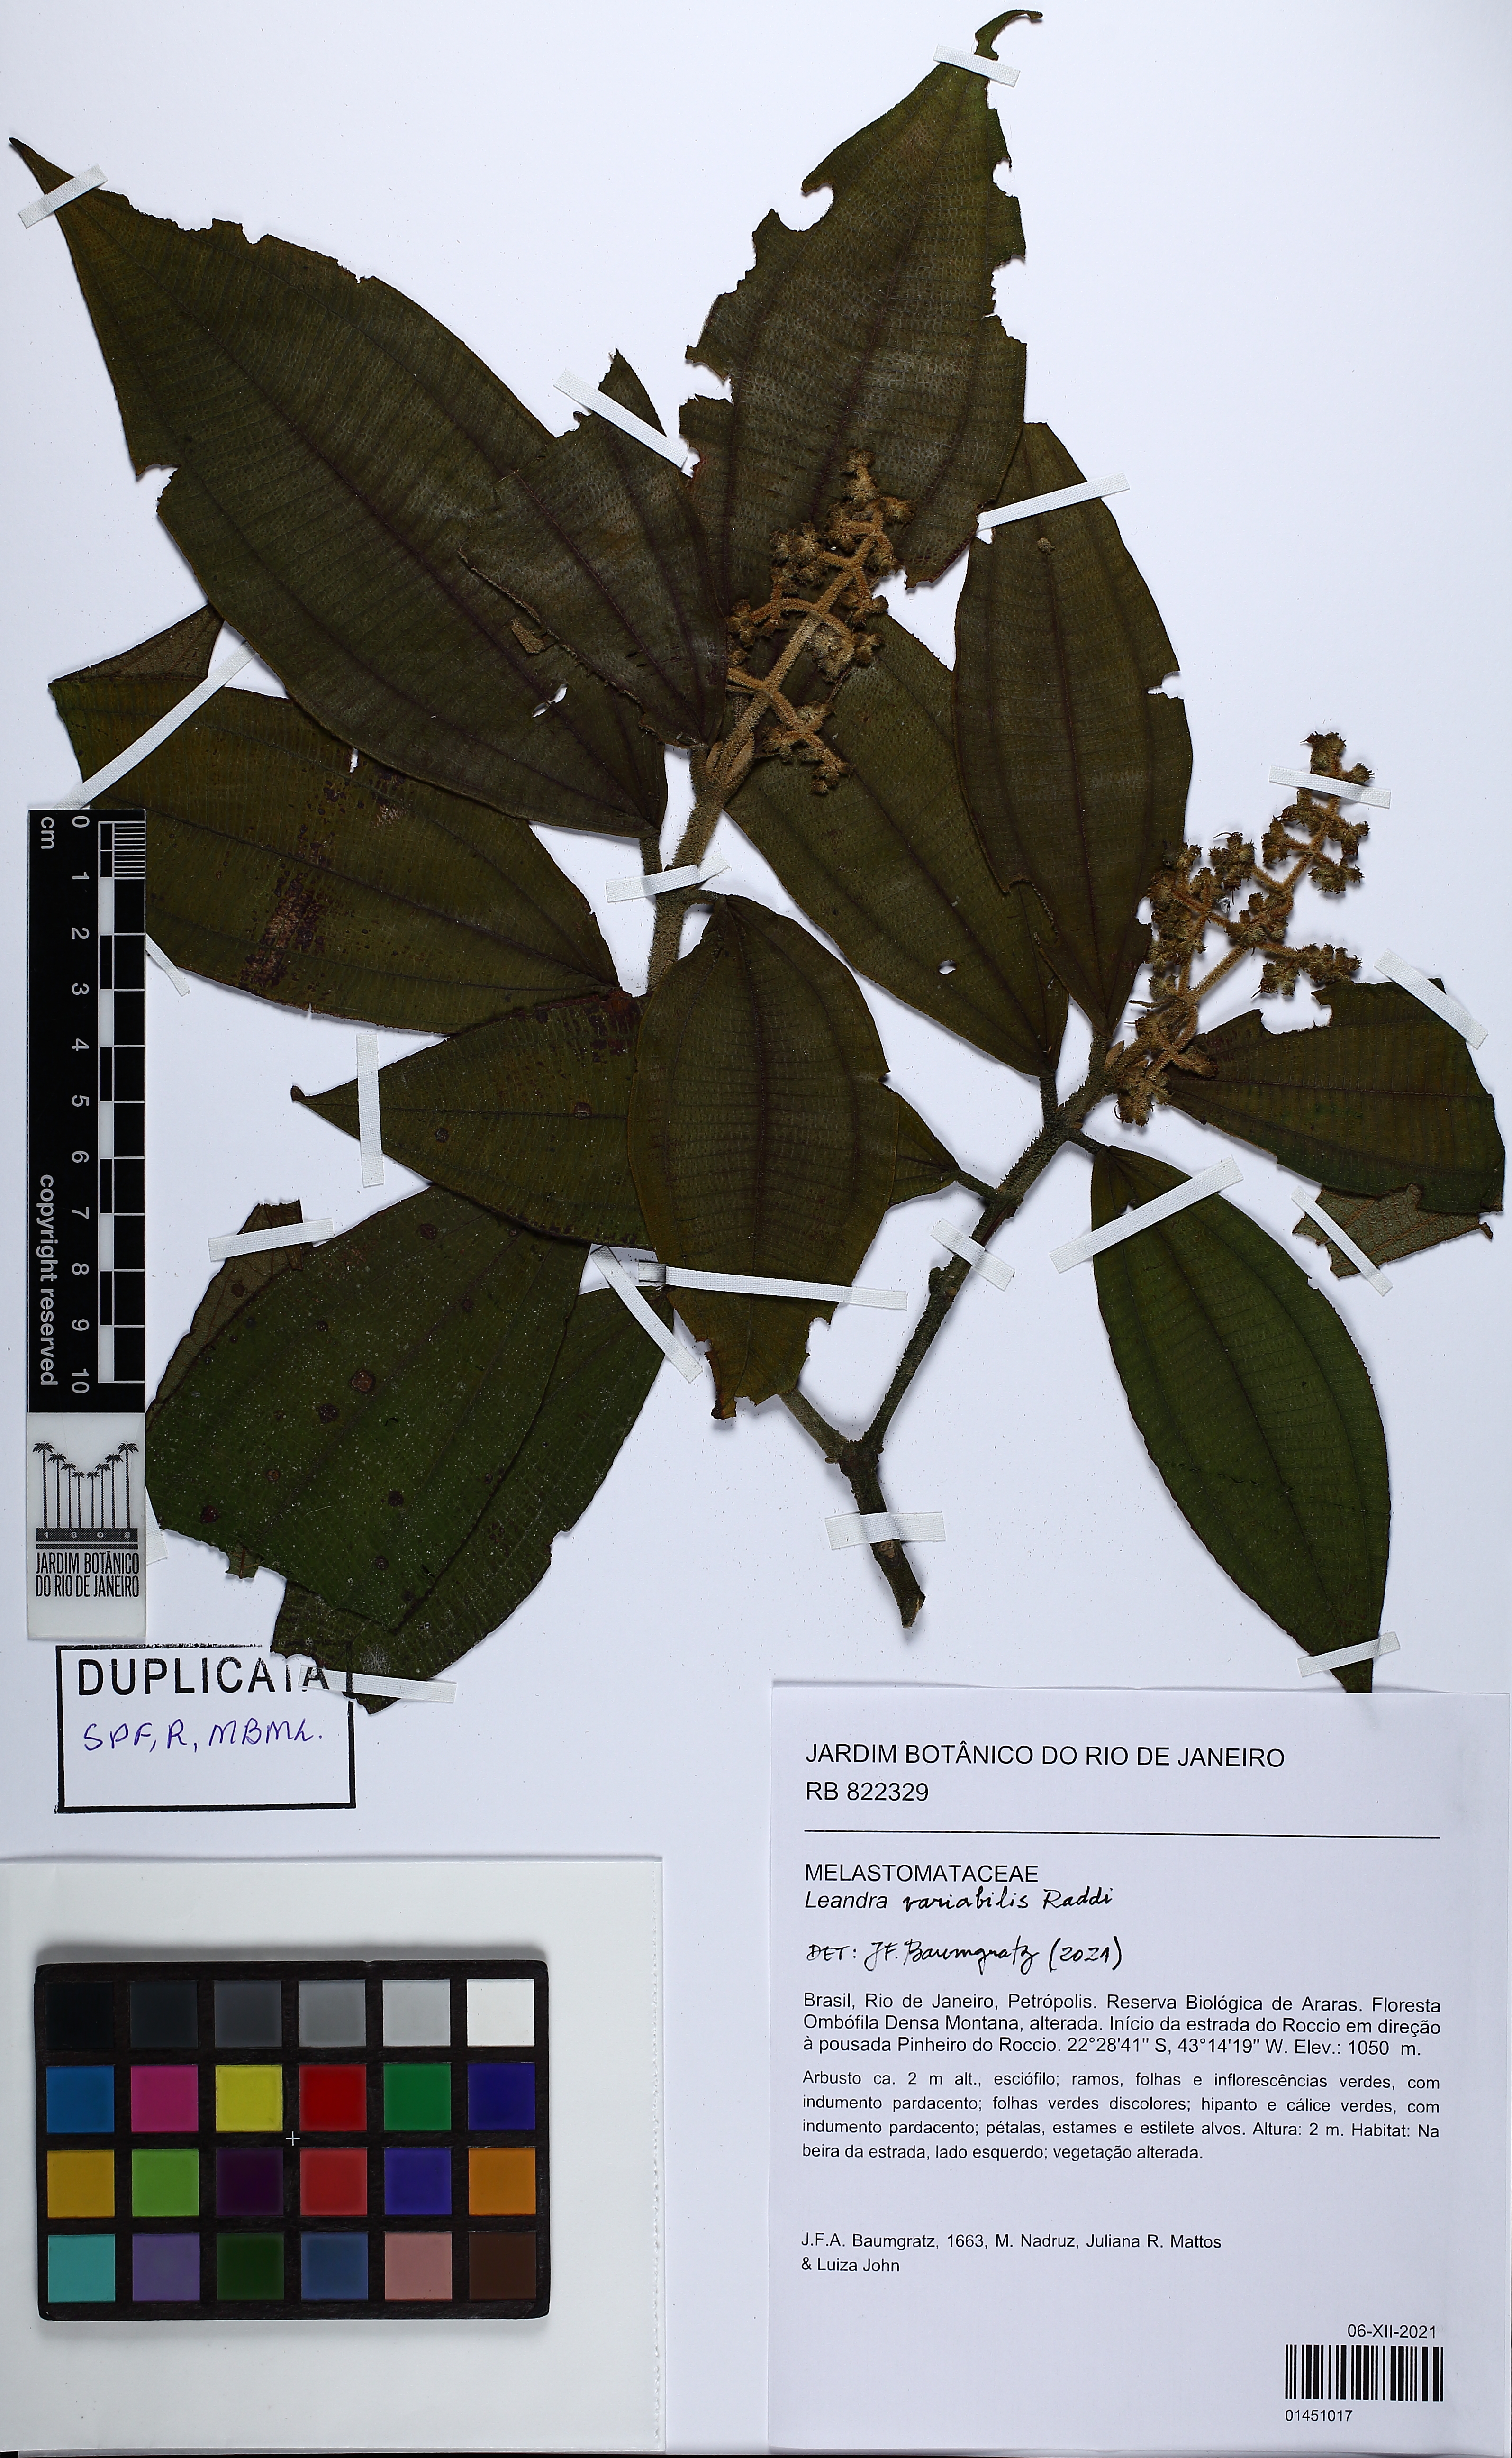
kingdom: Plantae
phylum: Tracheophyta
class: Magnoliopsida
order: Myrtales
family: Melastomataceae
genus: Miconia
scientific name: Miconia dasytricha
